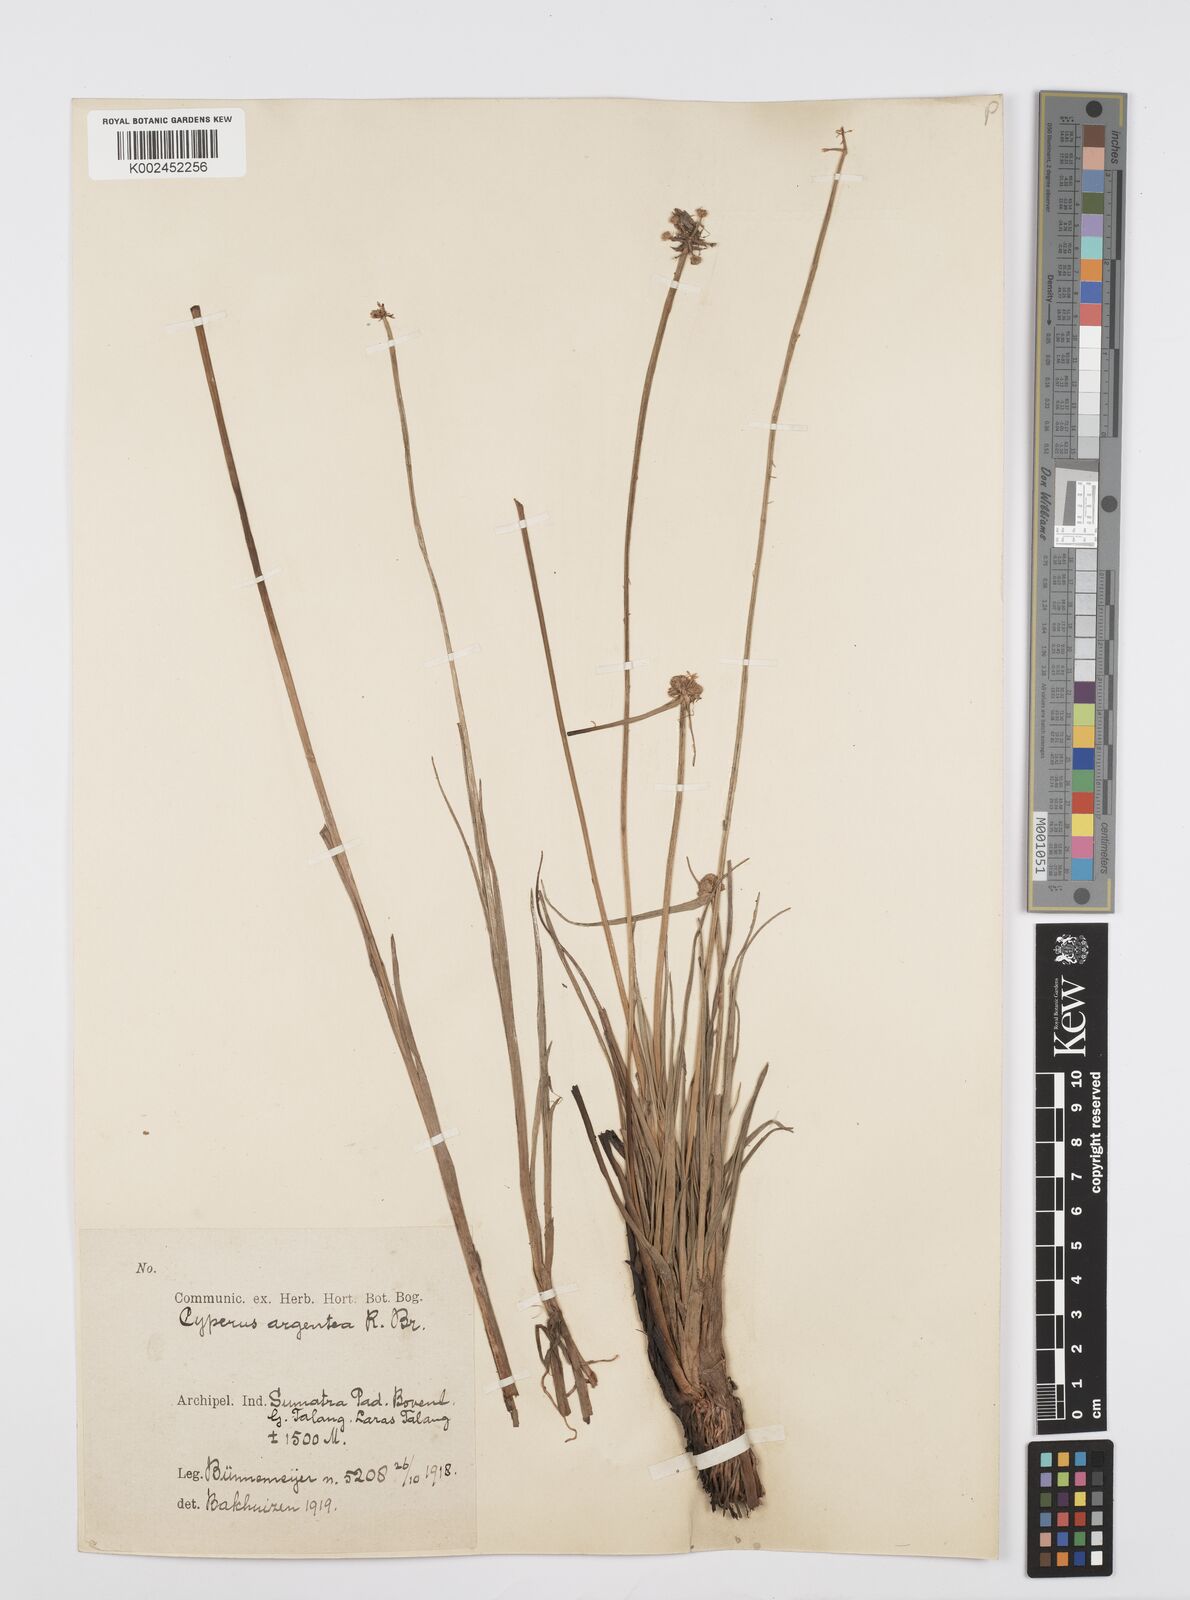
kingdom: Plantae
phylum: Tracheophyta
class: Liliopsida
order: Poales
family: Cyperaceae
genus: Cyperus
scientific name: Cyperus
